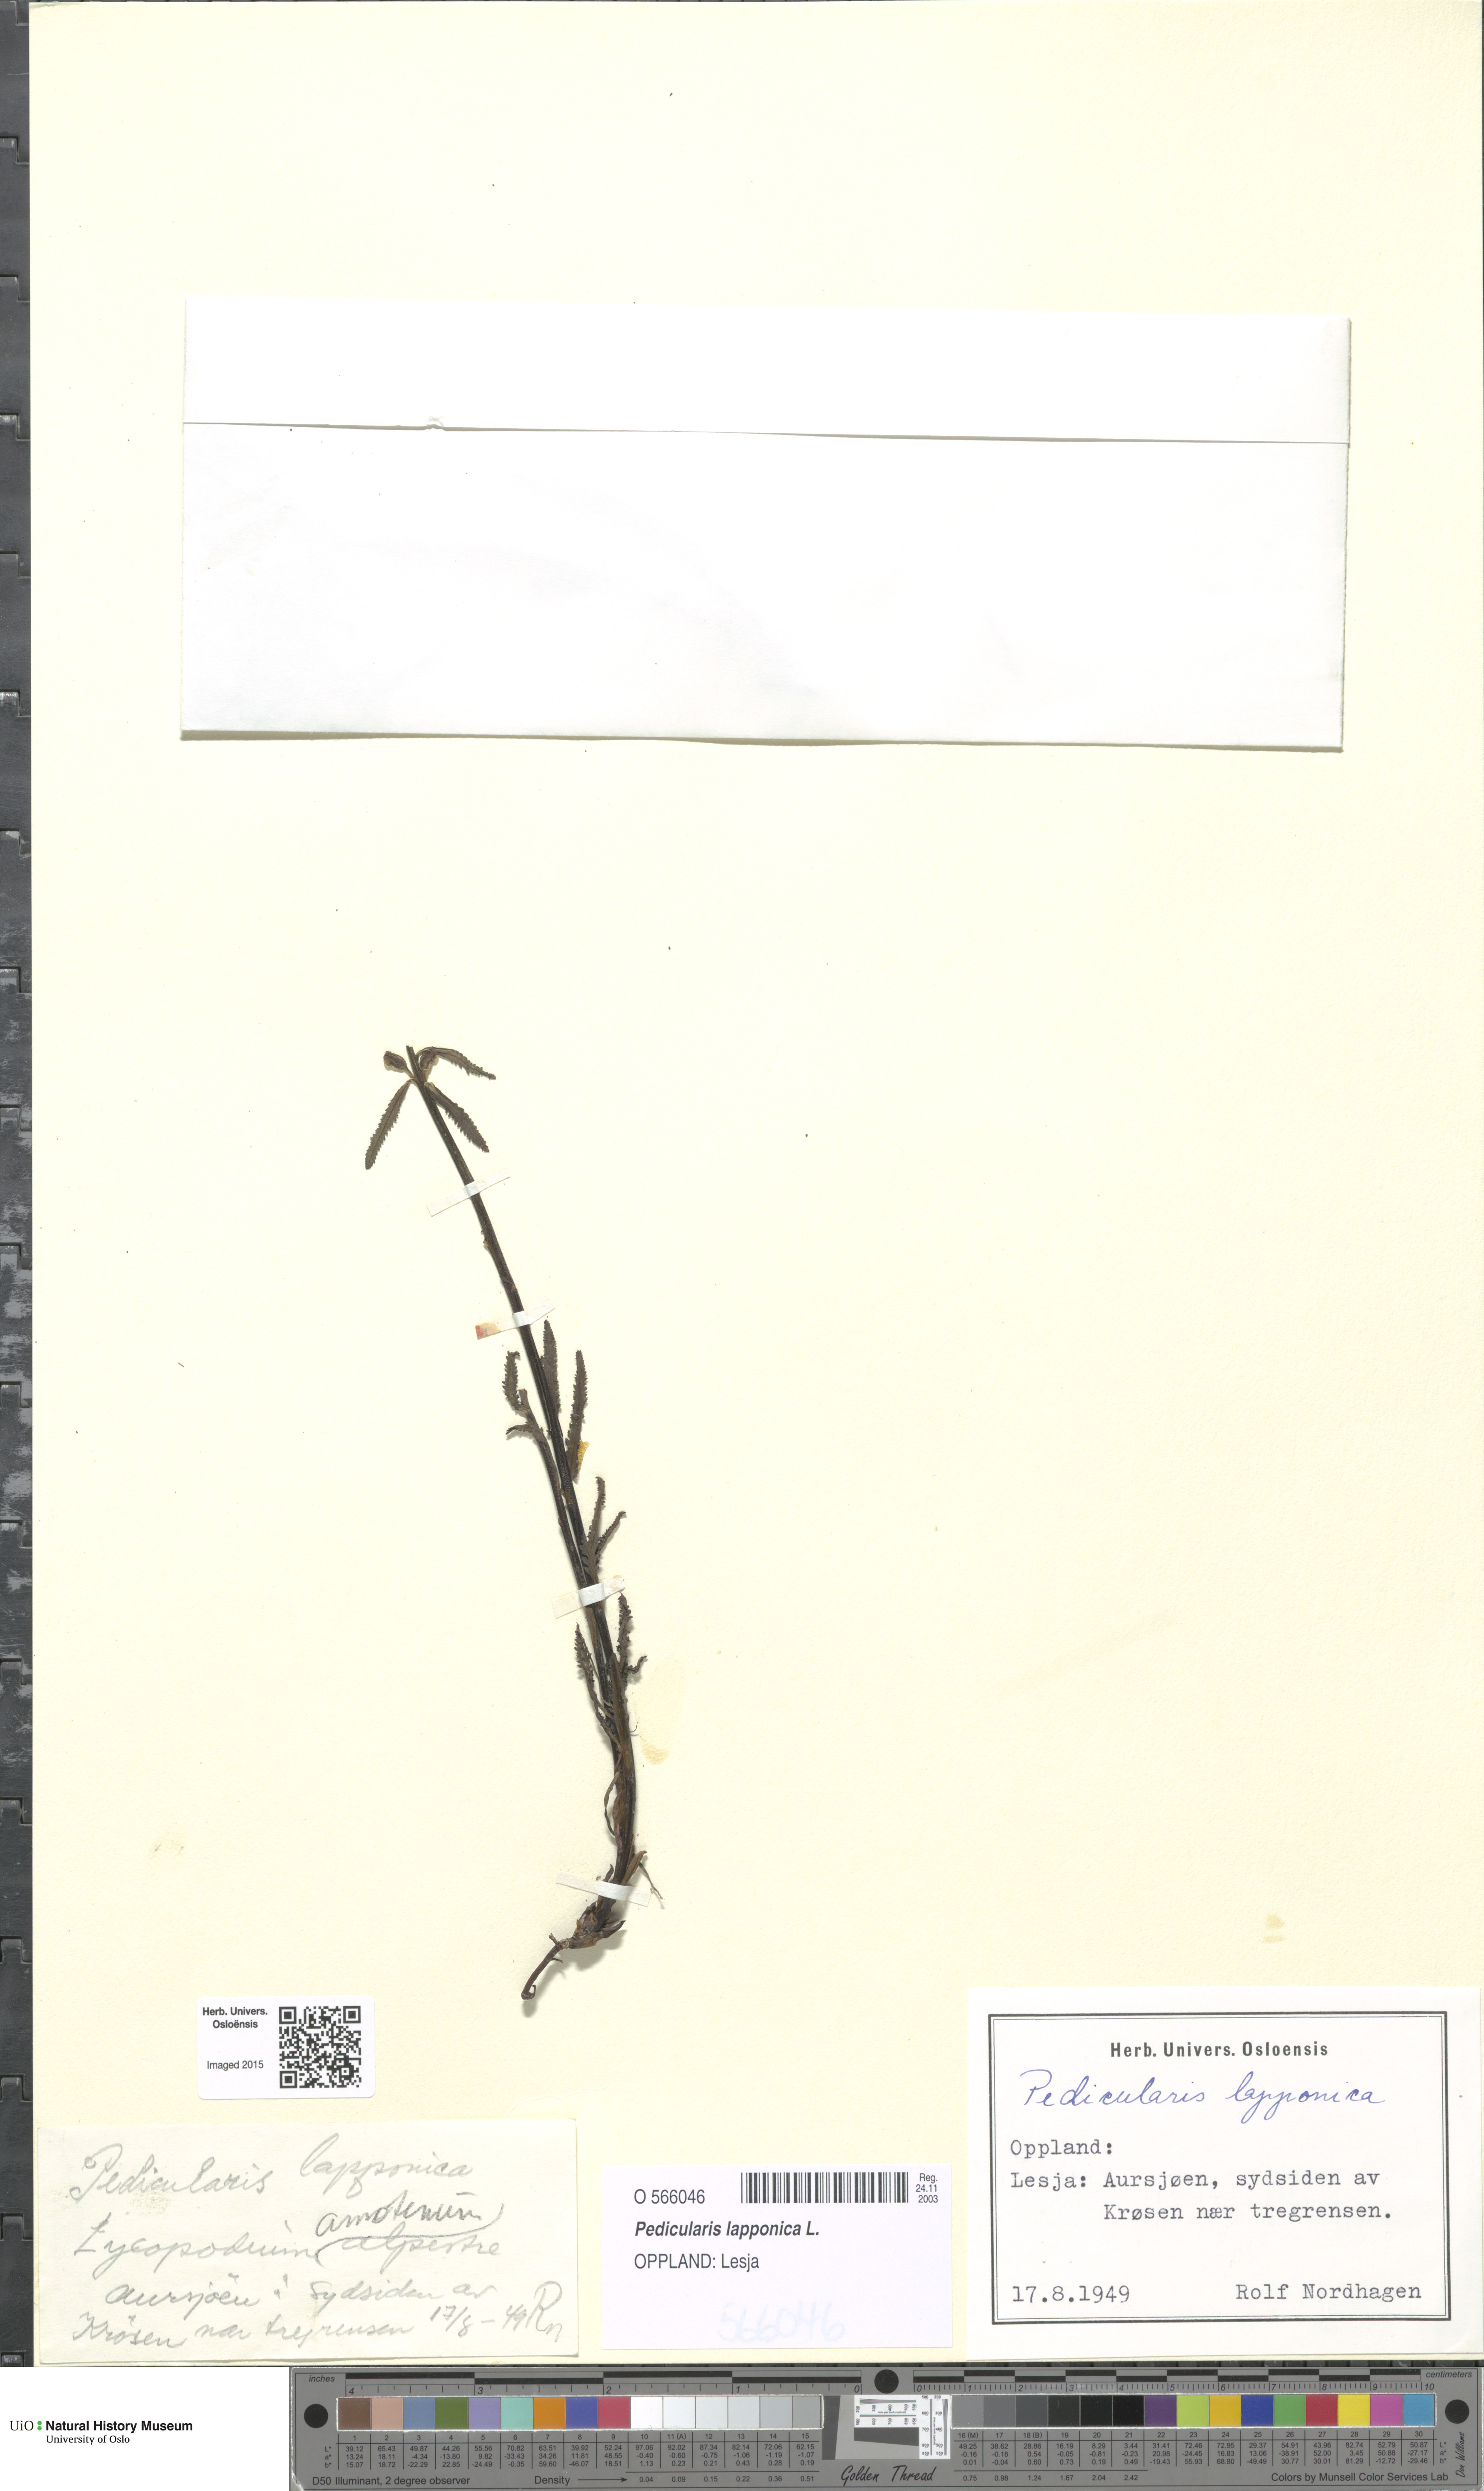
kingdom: Plantae
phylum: Tracheophyta
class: Magnoliopsida
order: Lamiales
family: Orobanchaceae
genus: Pedicularis
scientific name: Pedicularis lapponica
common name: Lapland lousewort
